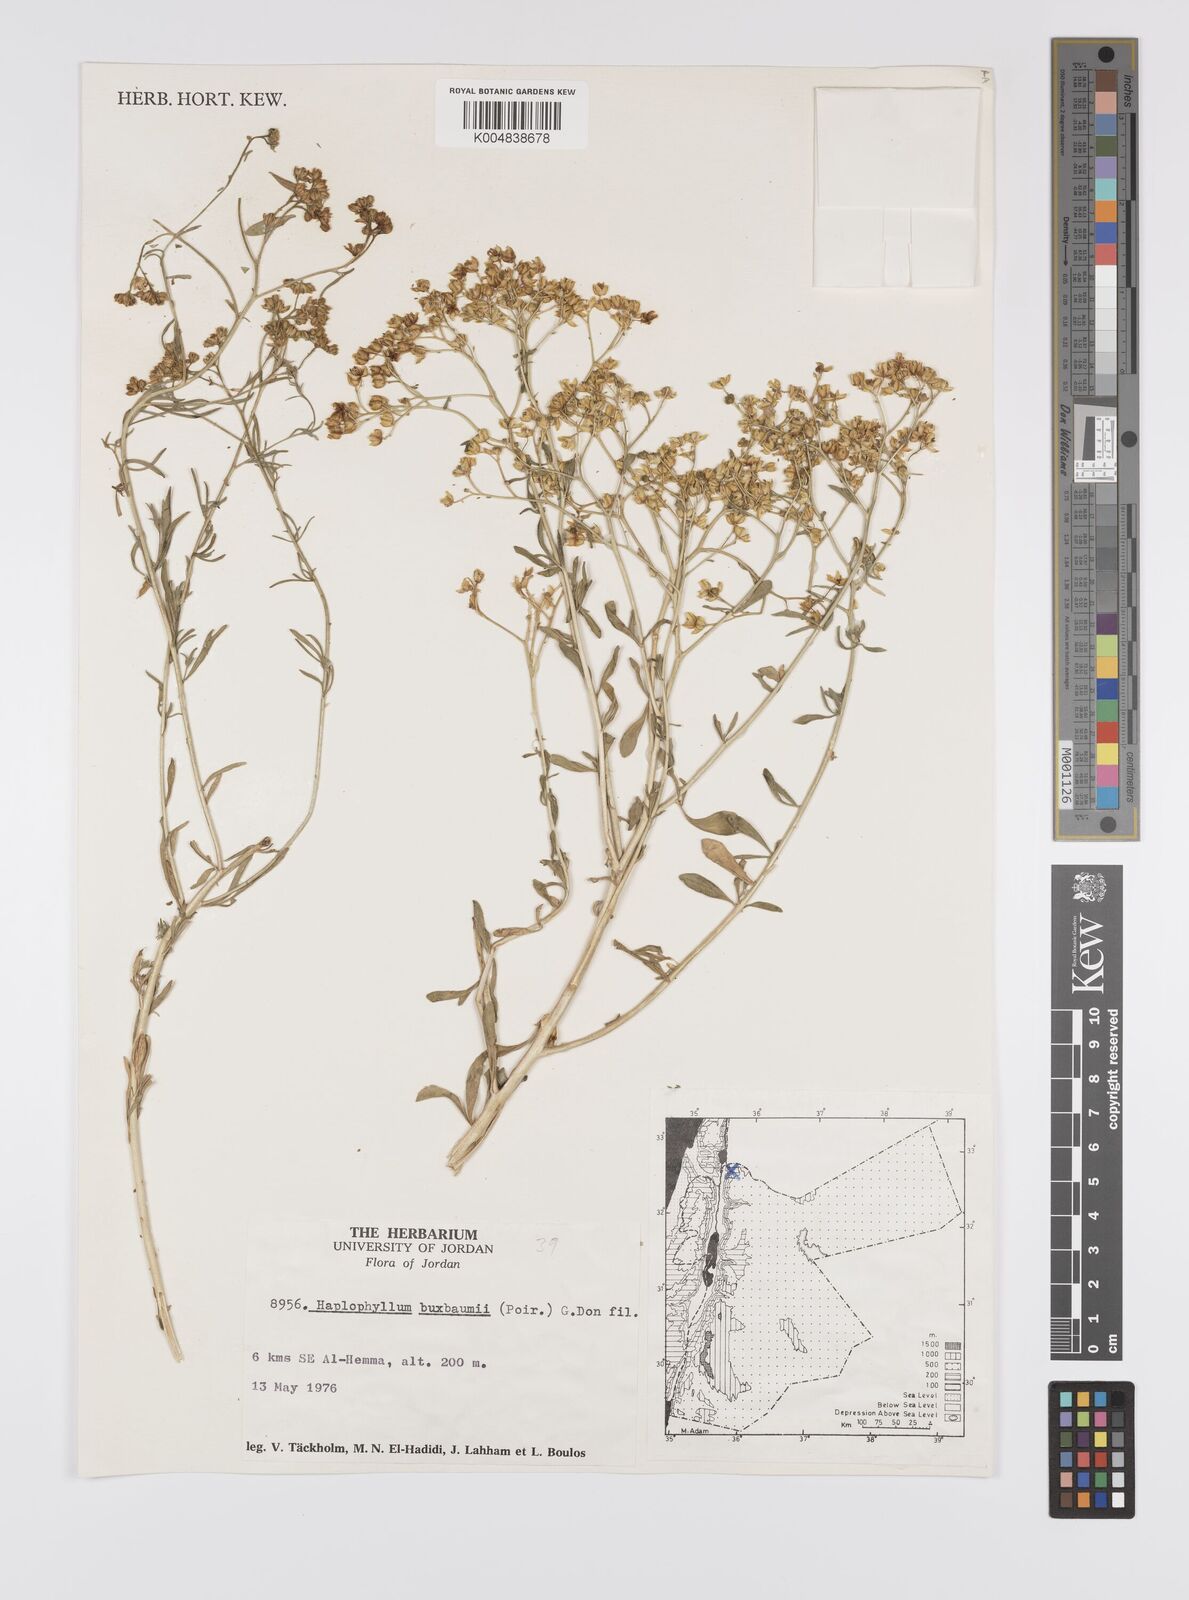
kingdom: Plantae
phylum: Tracheophyta
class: Magnoliopsida
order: Sapindales
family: Rutaceae
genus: Haplophyllum
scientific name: Haplophyllum
